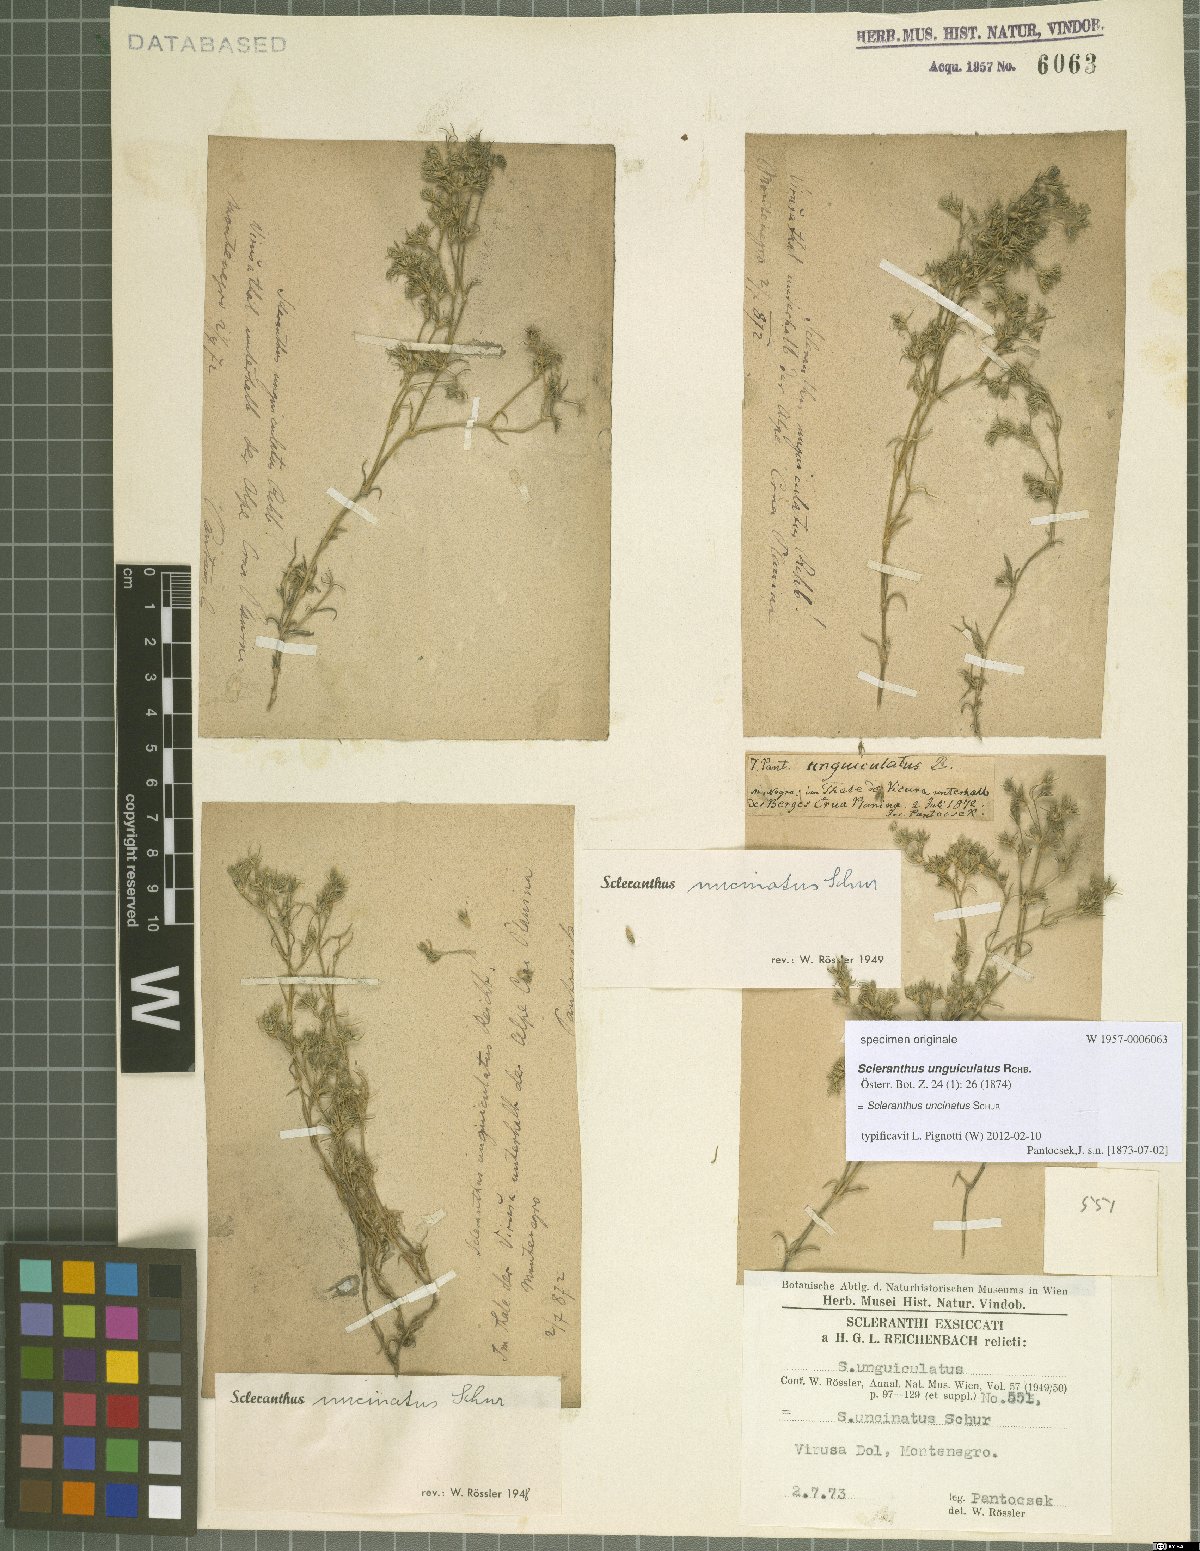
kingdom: Plantae
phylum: Tracheophyta
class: Magnoliopsida
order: Caryophyllales
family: Caryophyllaceae
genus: Scleranthus
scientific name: Scleranthus uncinatus
